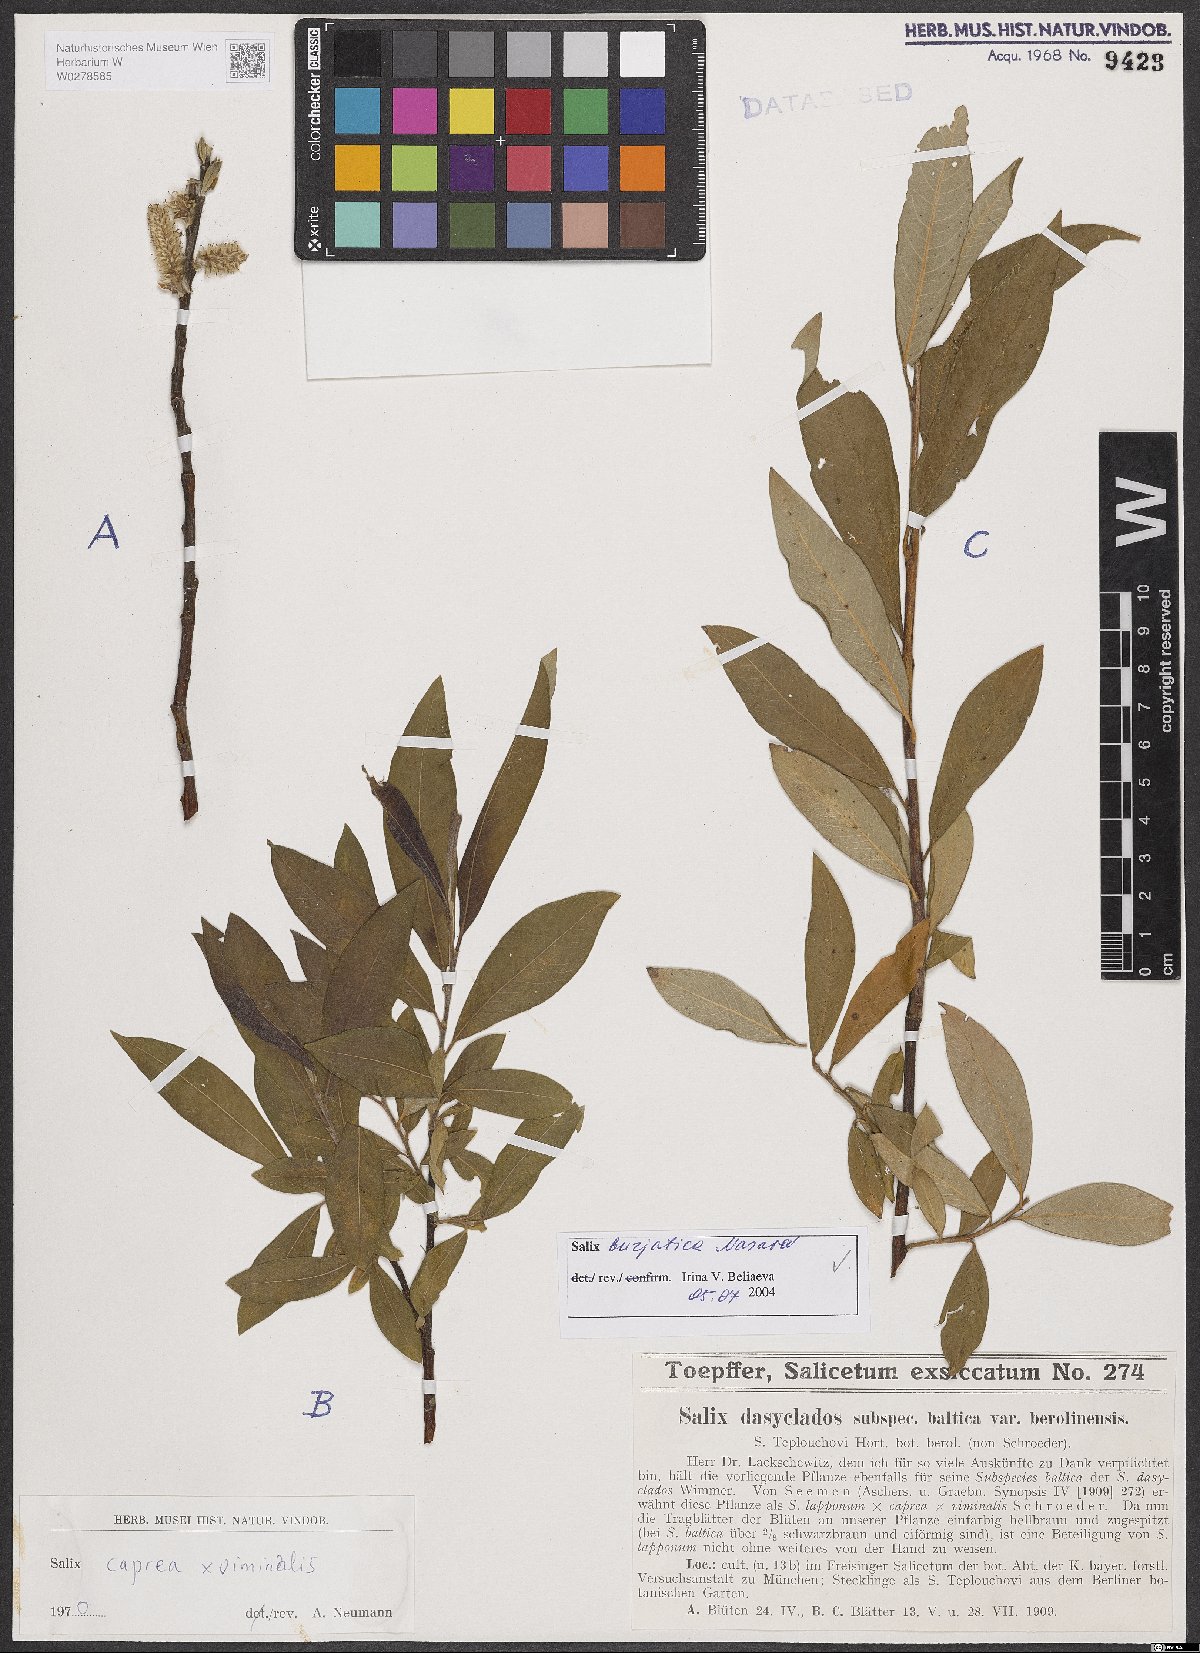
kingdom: Plantae
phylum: Tracheophyta
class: Magnoliopsida
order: Malpighiales
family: Salicaceae
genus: Salix
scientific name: Salix gmelinii
